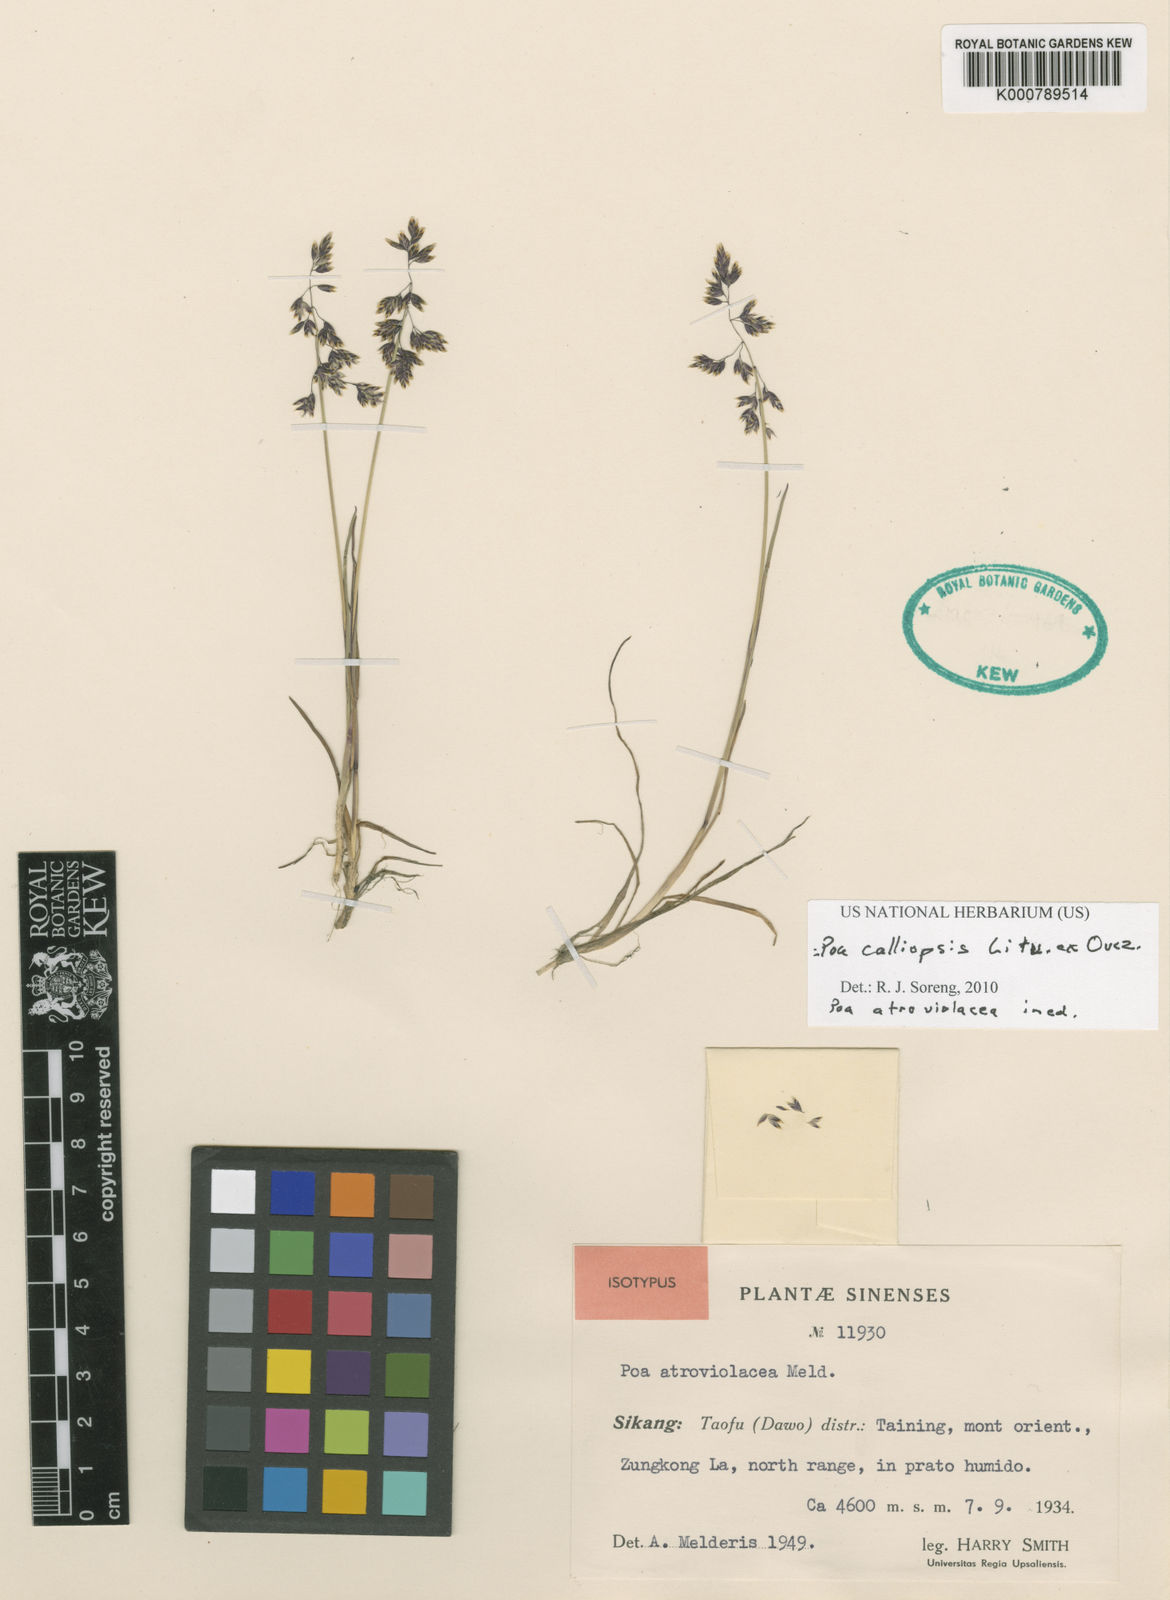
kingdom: Plantae
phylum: Tracheophyta
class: Liliopsida
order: Poales
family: Poaceae
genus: Poa
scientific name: Poa calliopsis
